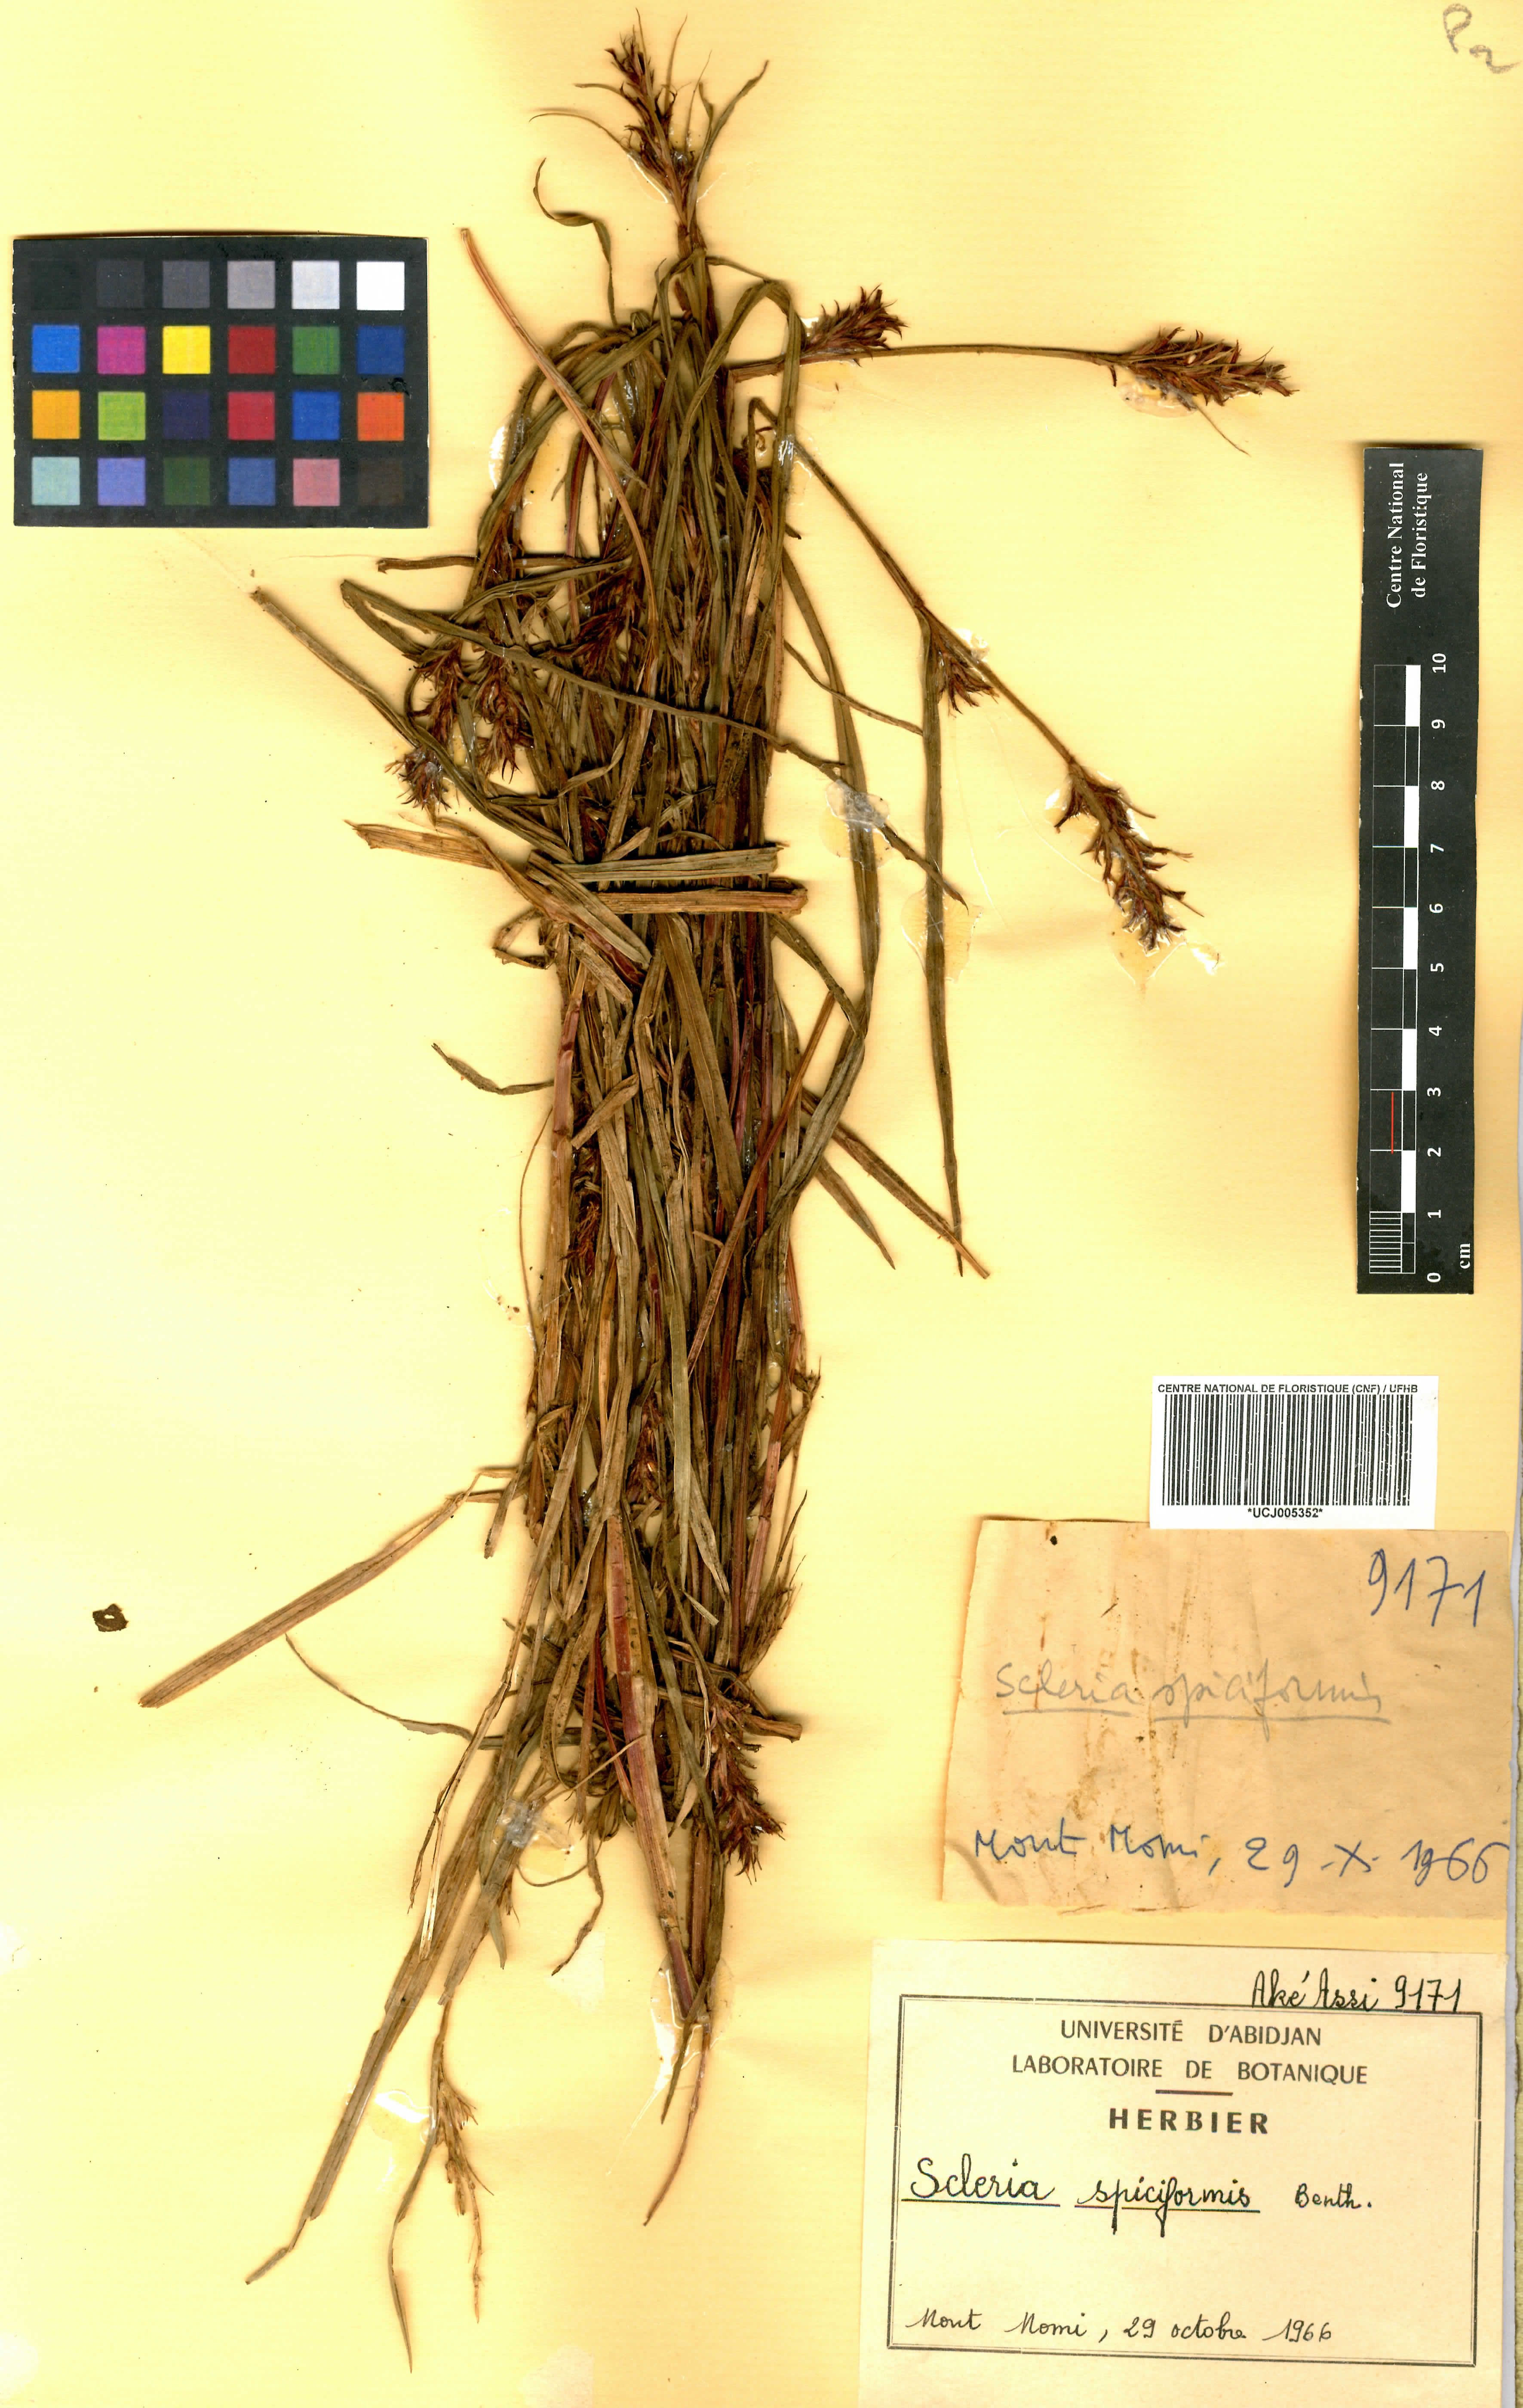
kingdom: Plantae
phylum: Tracheophyta
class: Liliopsida
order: Poales
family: Cyperaceae
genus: Scleria
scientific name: Scleria spiciformis
